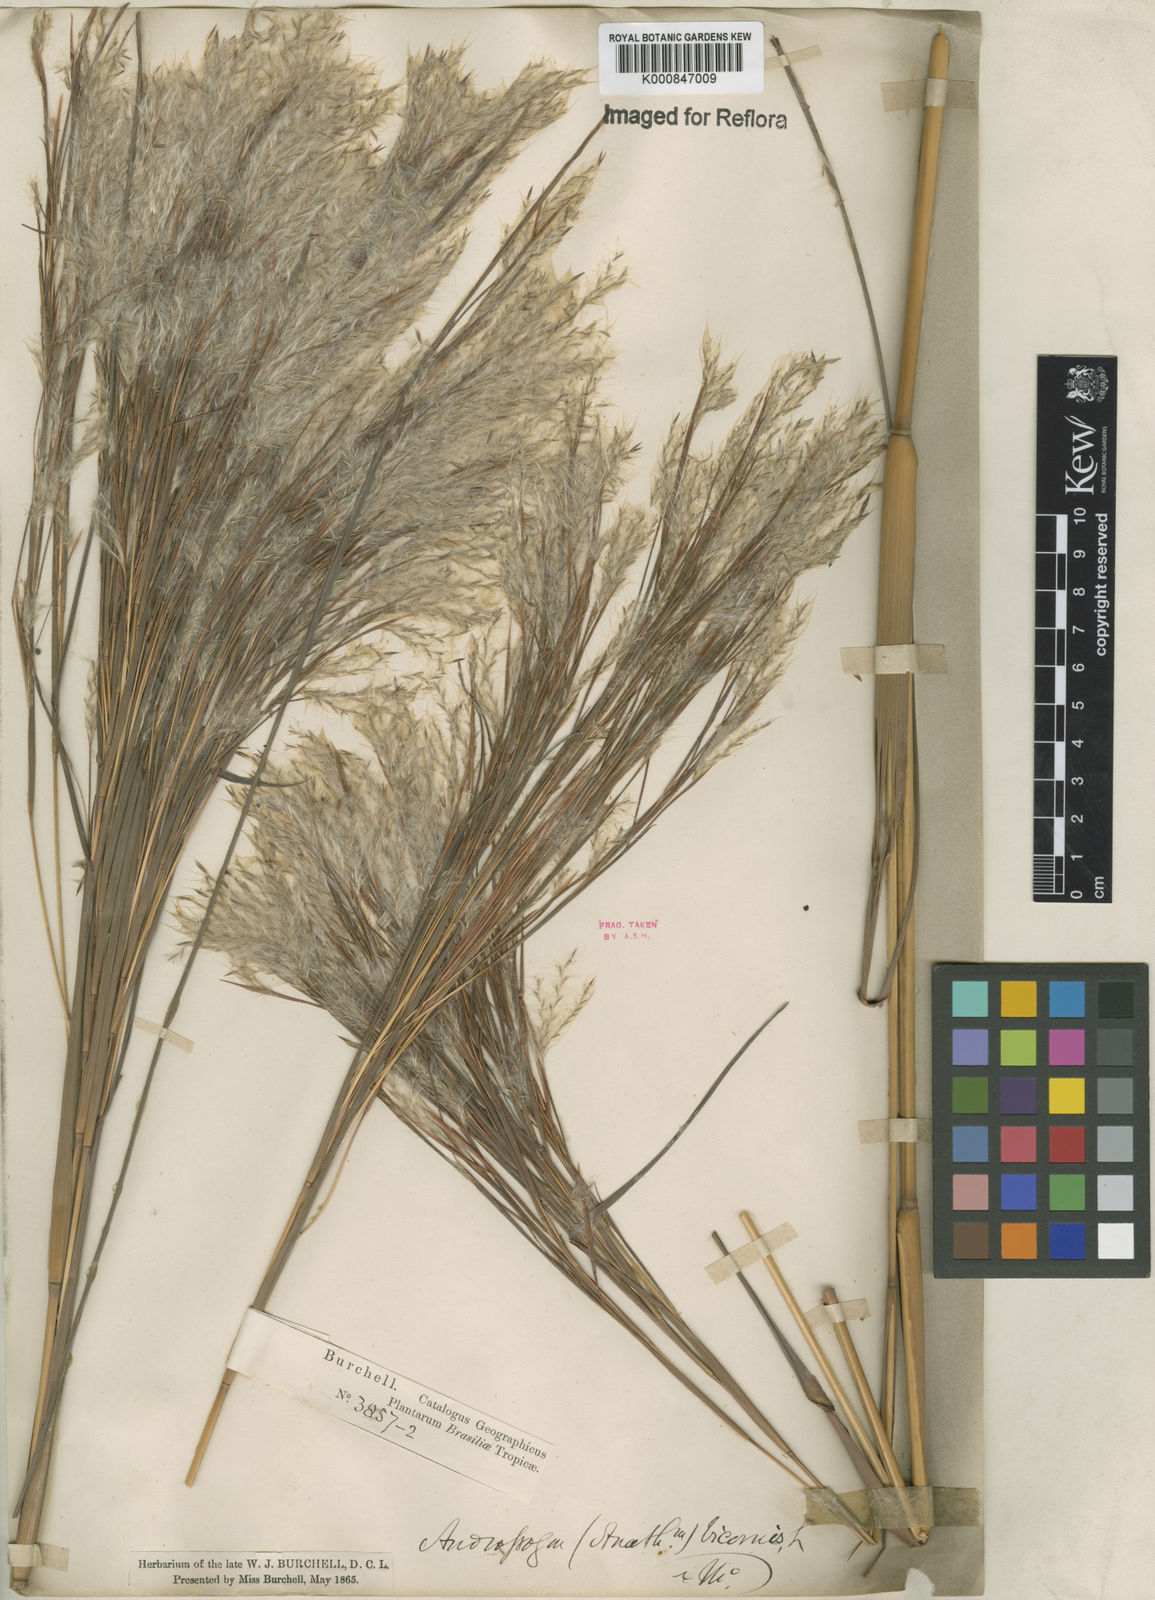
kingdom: Plantae
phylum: Tracheophyta
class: Liliopsida
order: Poales
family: Poaceae
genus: Andropogon
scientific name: Andropogon
